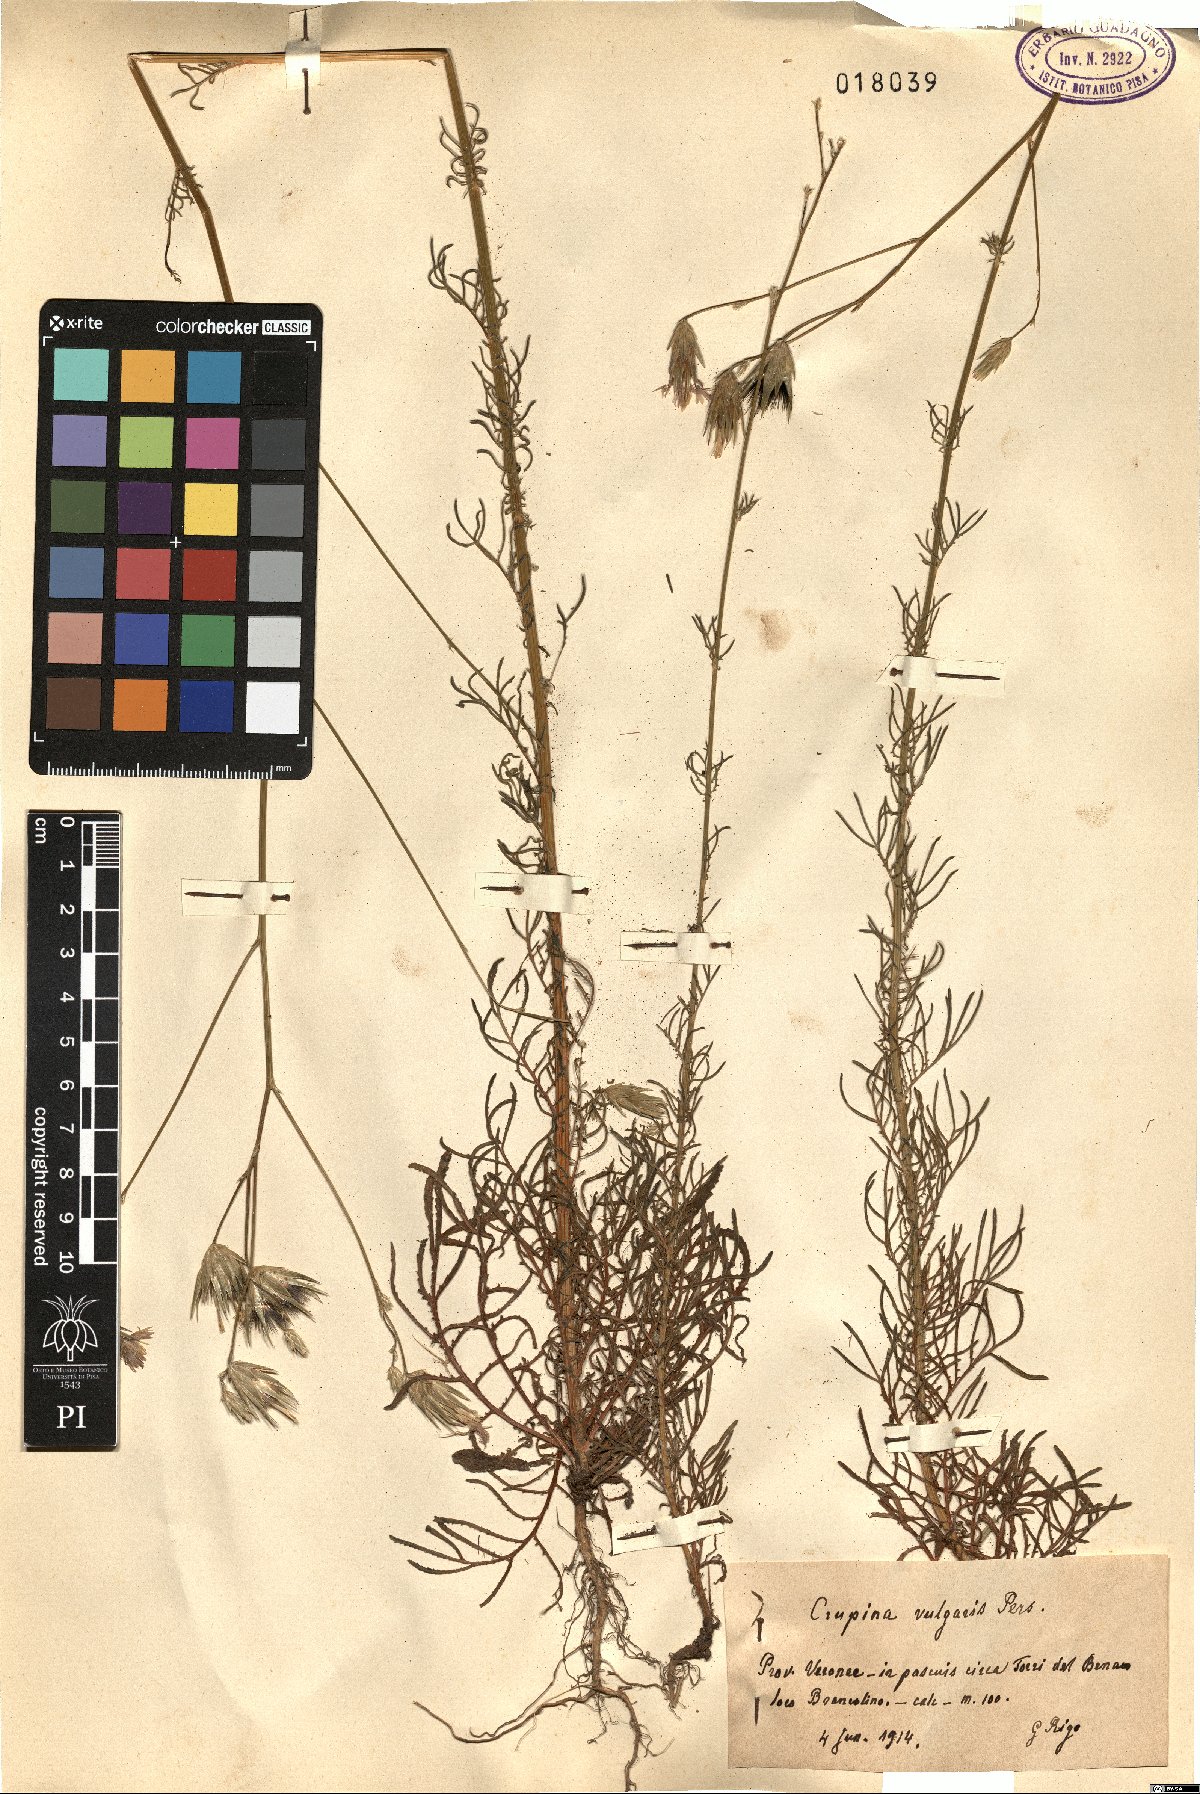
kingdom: Plantae
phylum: Tracheophyta
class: Magnoliopsida
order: Asterales
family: Asteraceae
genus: Crupina
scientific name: Crupina vulgaris
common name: Common crupina
